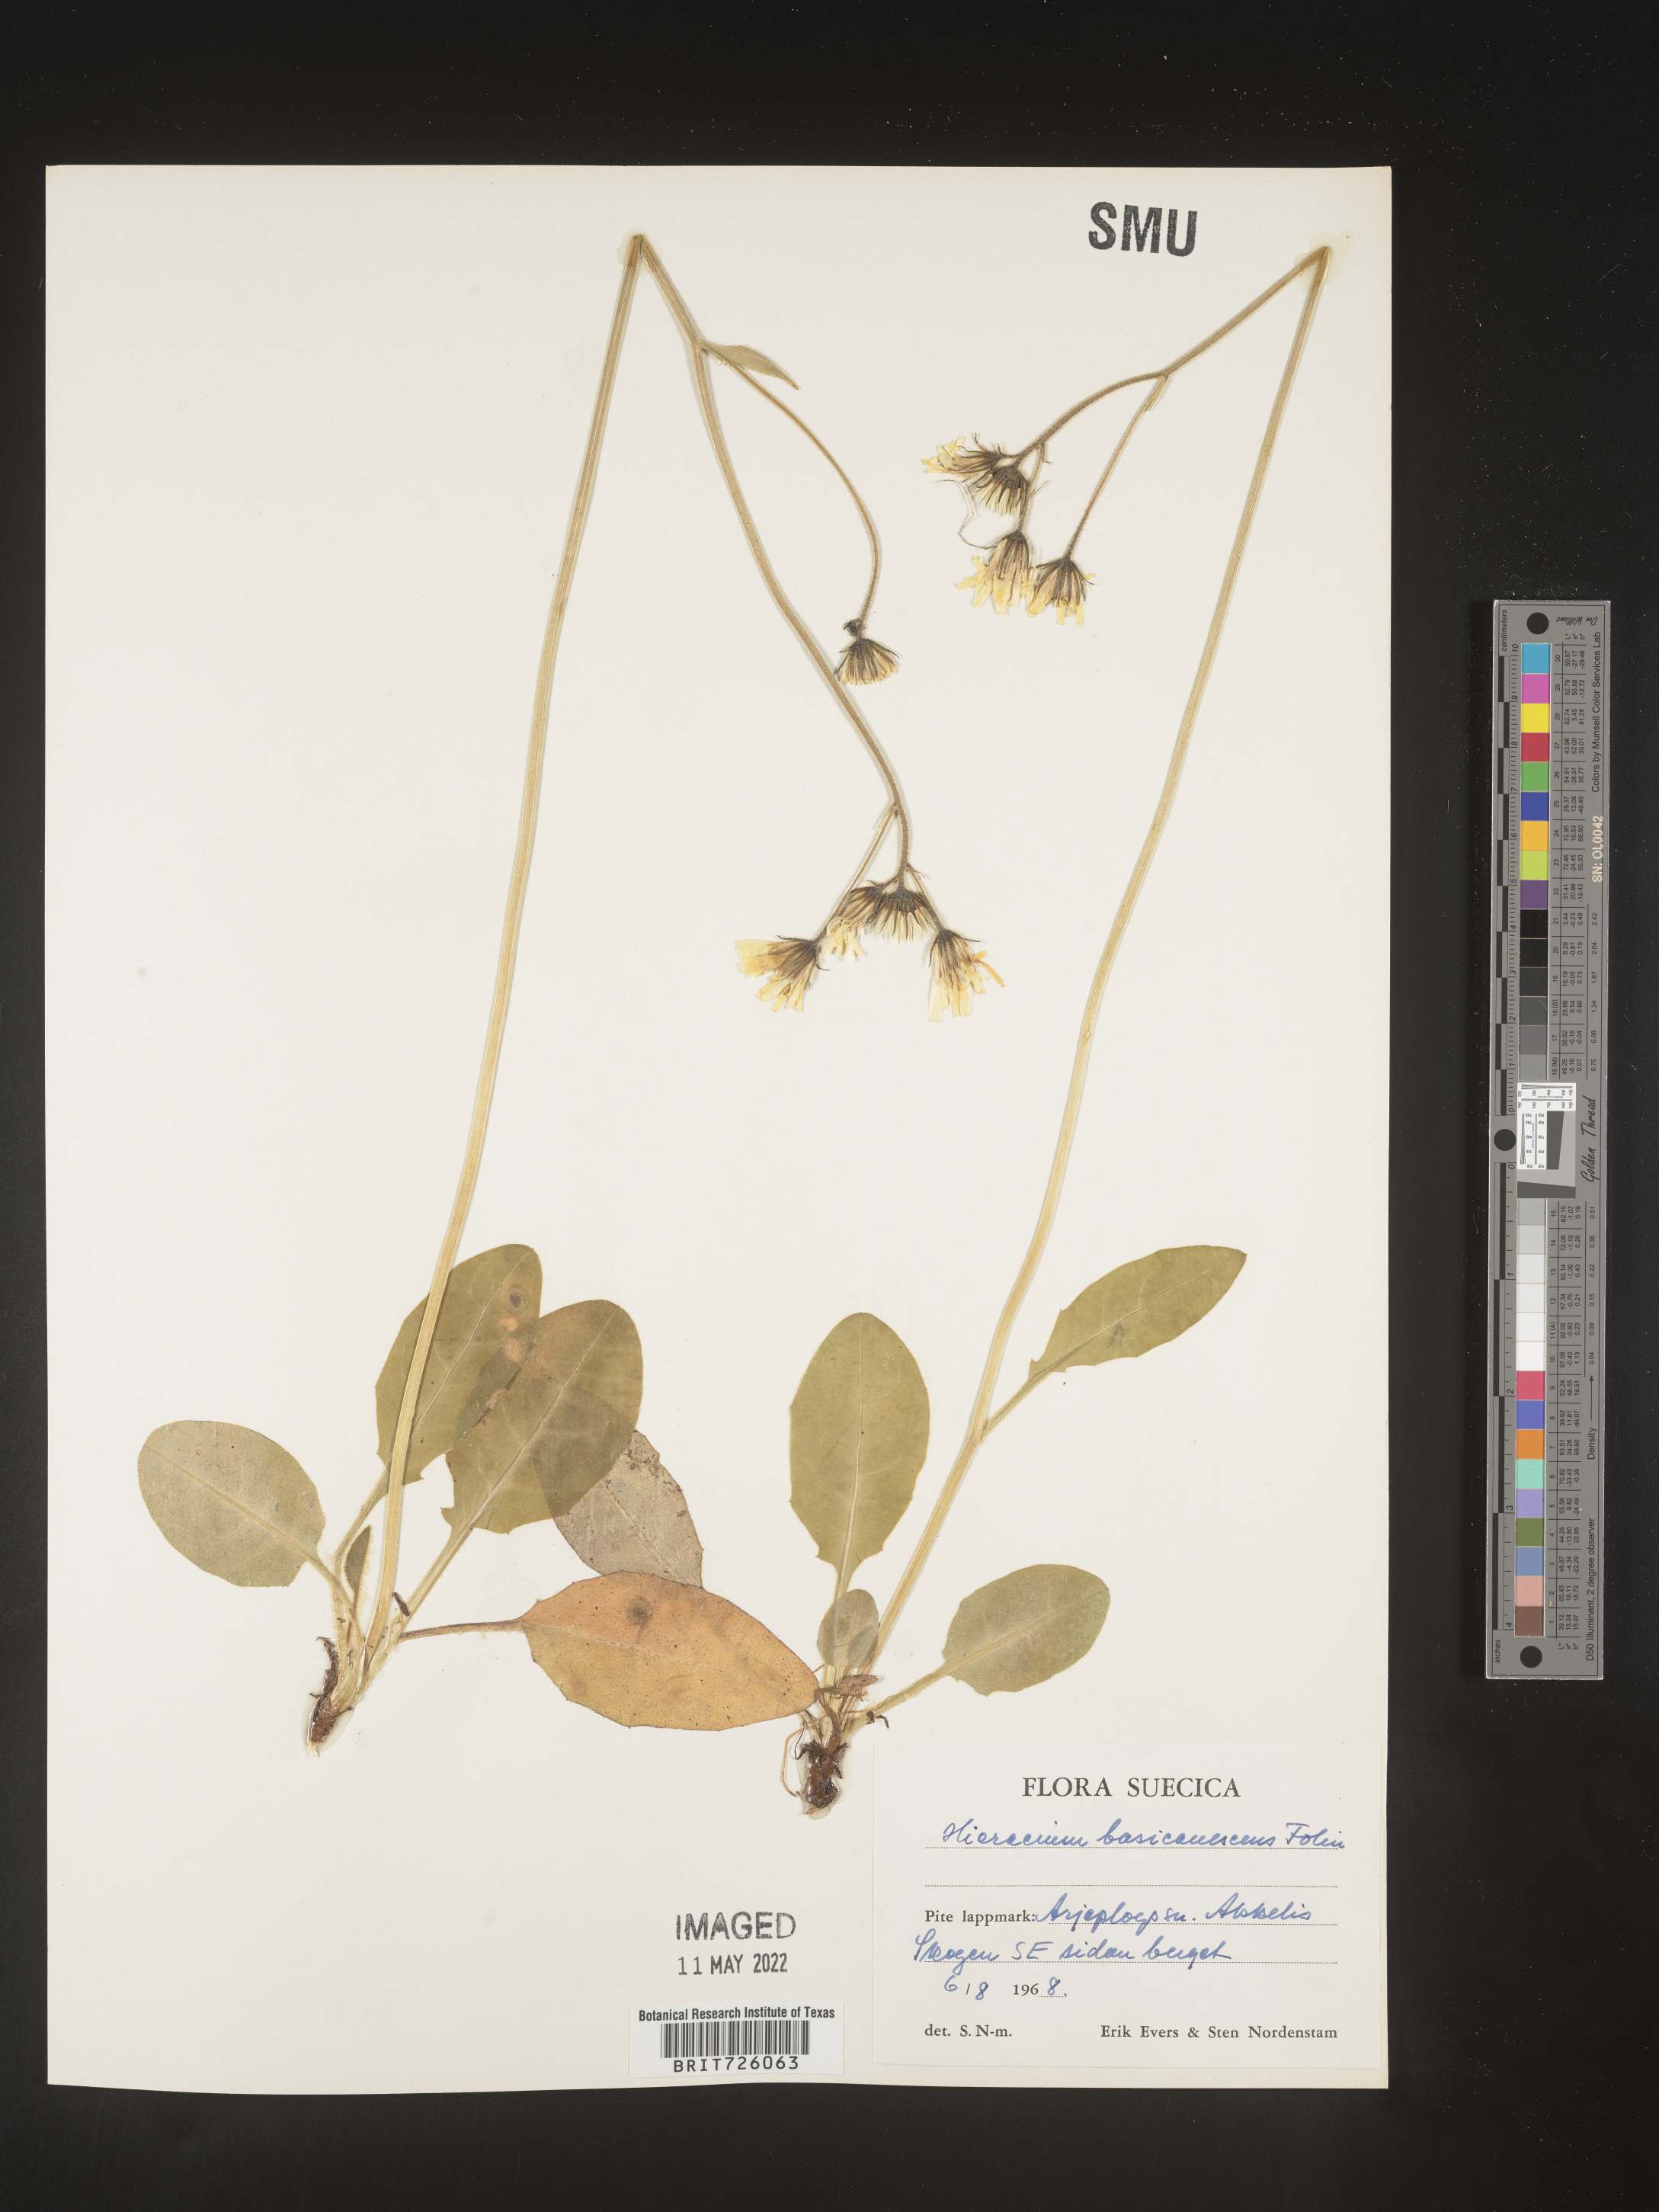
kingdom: Plantae
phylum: Tracheophyta
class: Magnoliopsida
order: Asterales
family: Asteraceae
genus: Hieracium
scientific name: Hieracium
